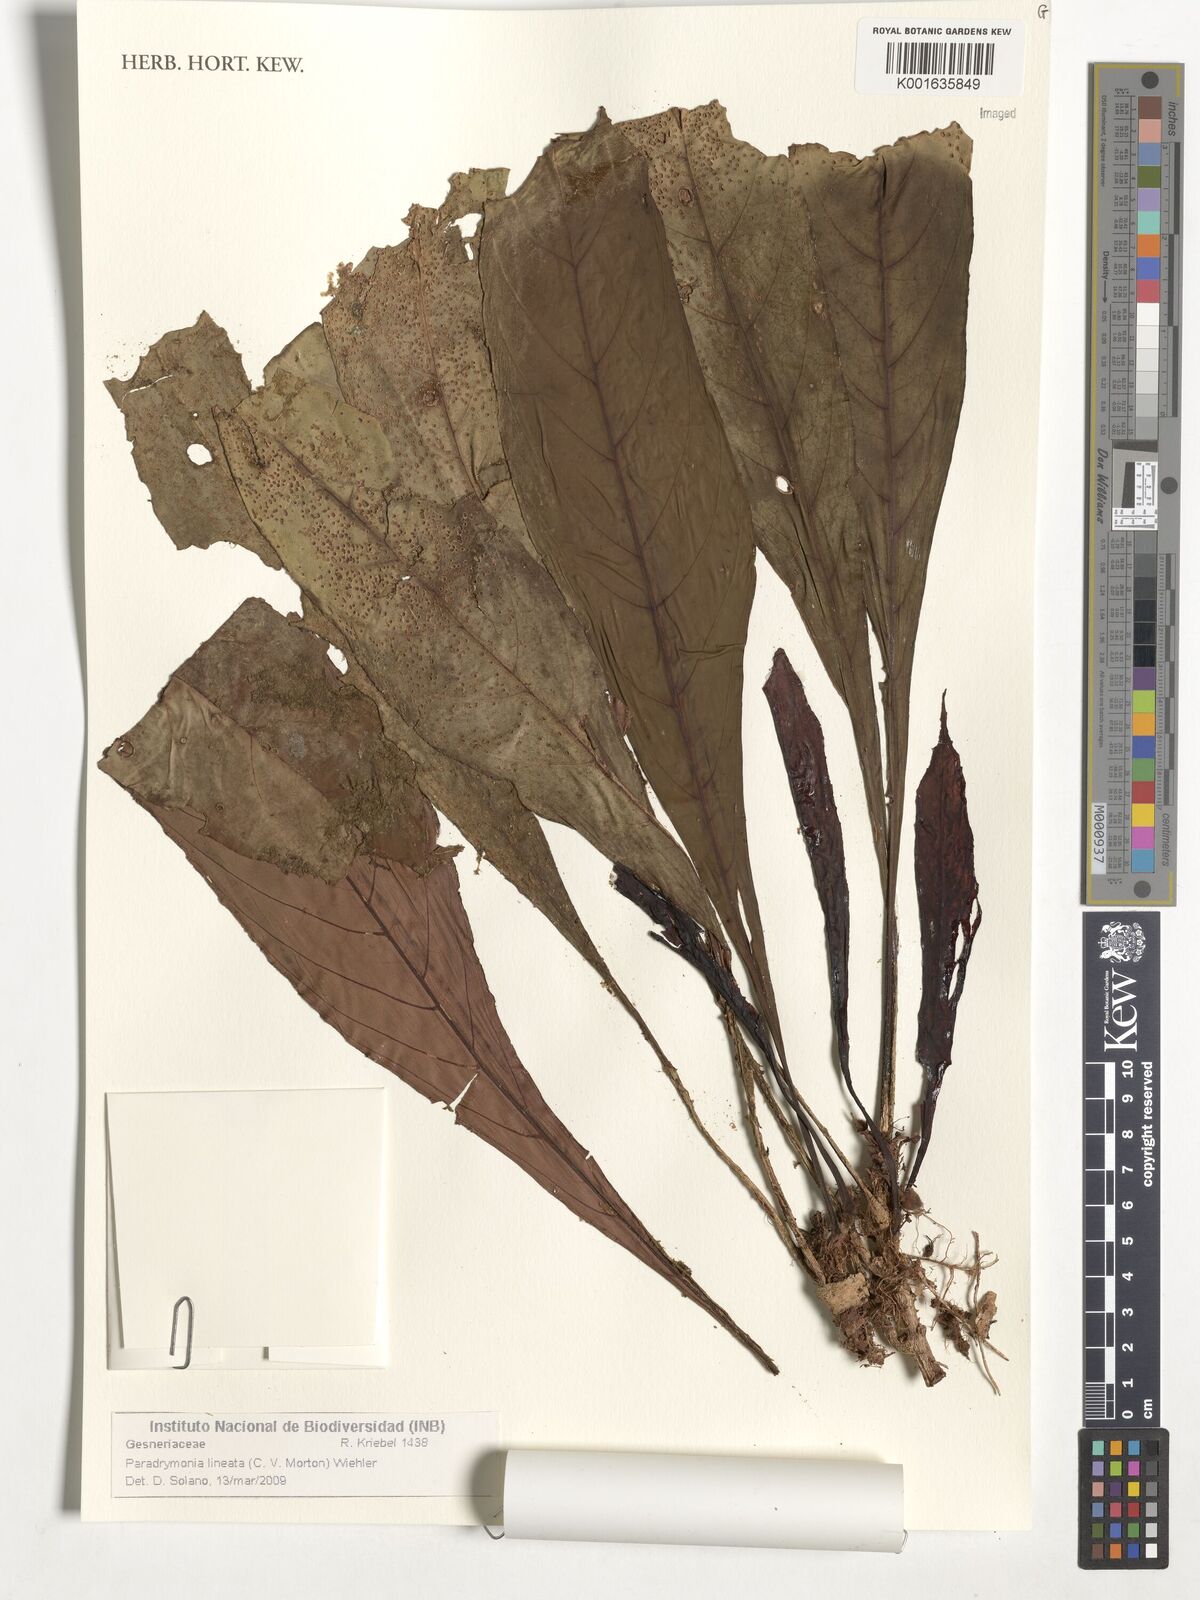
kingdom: Plantae
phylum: Tracheophyta
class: Magnoliopsida
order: Lamiales
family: Gesneriaceae
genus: Trichodrymonia
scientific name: Trichodrymonia lineata
